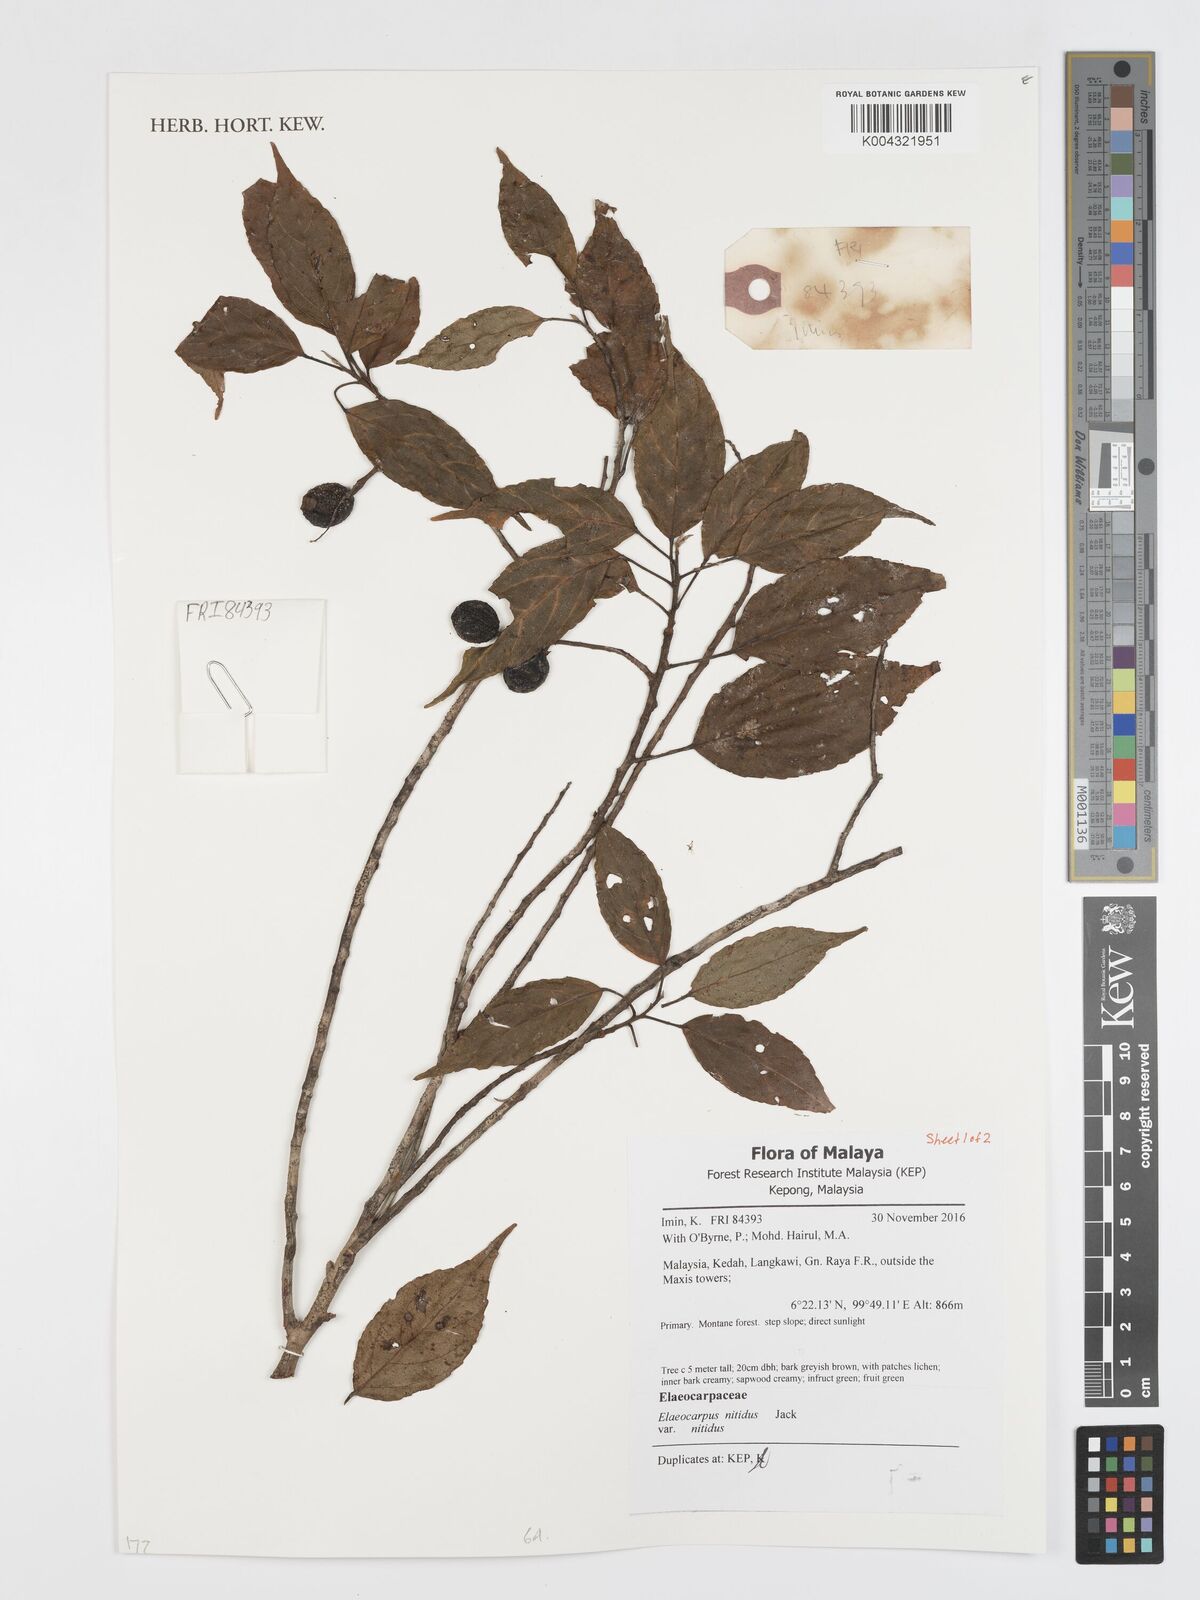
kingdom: Plantae
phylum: Tracheophyta
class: Magnoliopsida
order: Oxalidales
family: Elaeocarpaceae
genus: Elaeocarpus
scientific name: Elaeocarpus nitidus
